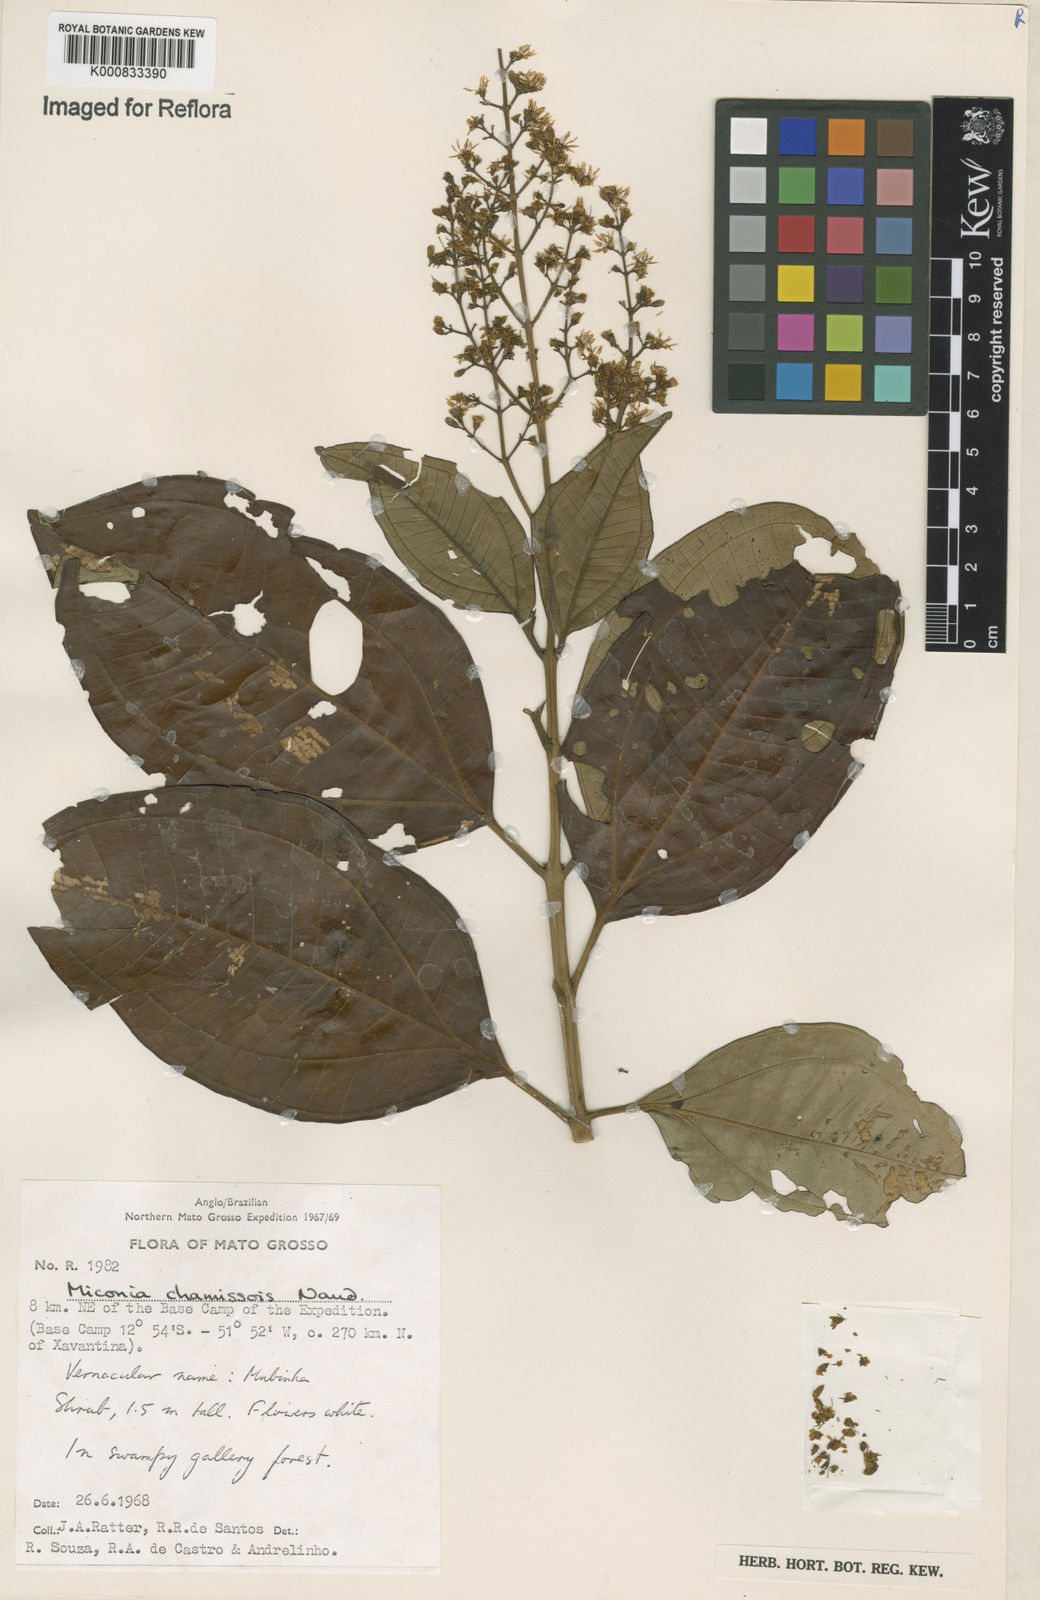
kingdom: Plantae
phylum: Tracheophyta
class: Magnoliopsida
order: Myrtales
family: Melastomataceae
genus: Miconia
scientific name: Miconia chamissois
